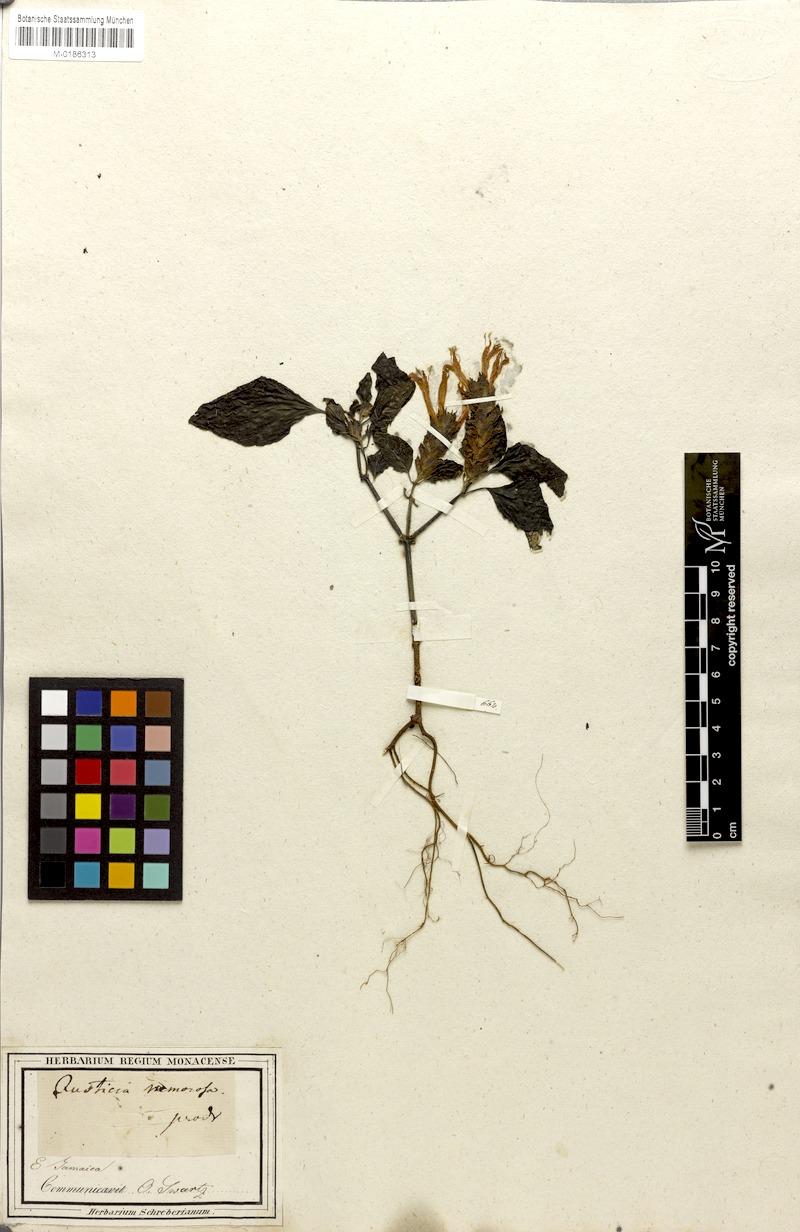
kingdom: Plantae
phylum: Tracheophyta
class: Magnoliopsida
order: Lamiales
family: Acanthaceae
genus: Justicia
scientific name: Justicia nemorosa
